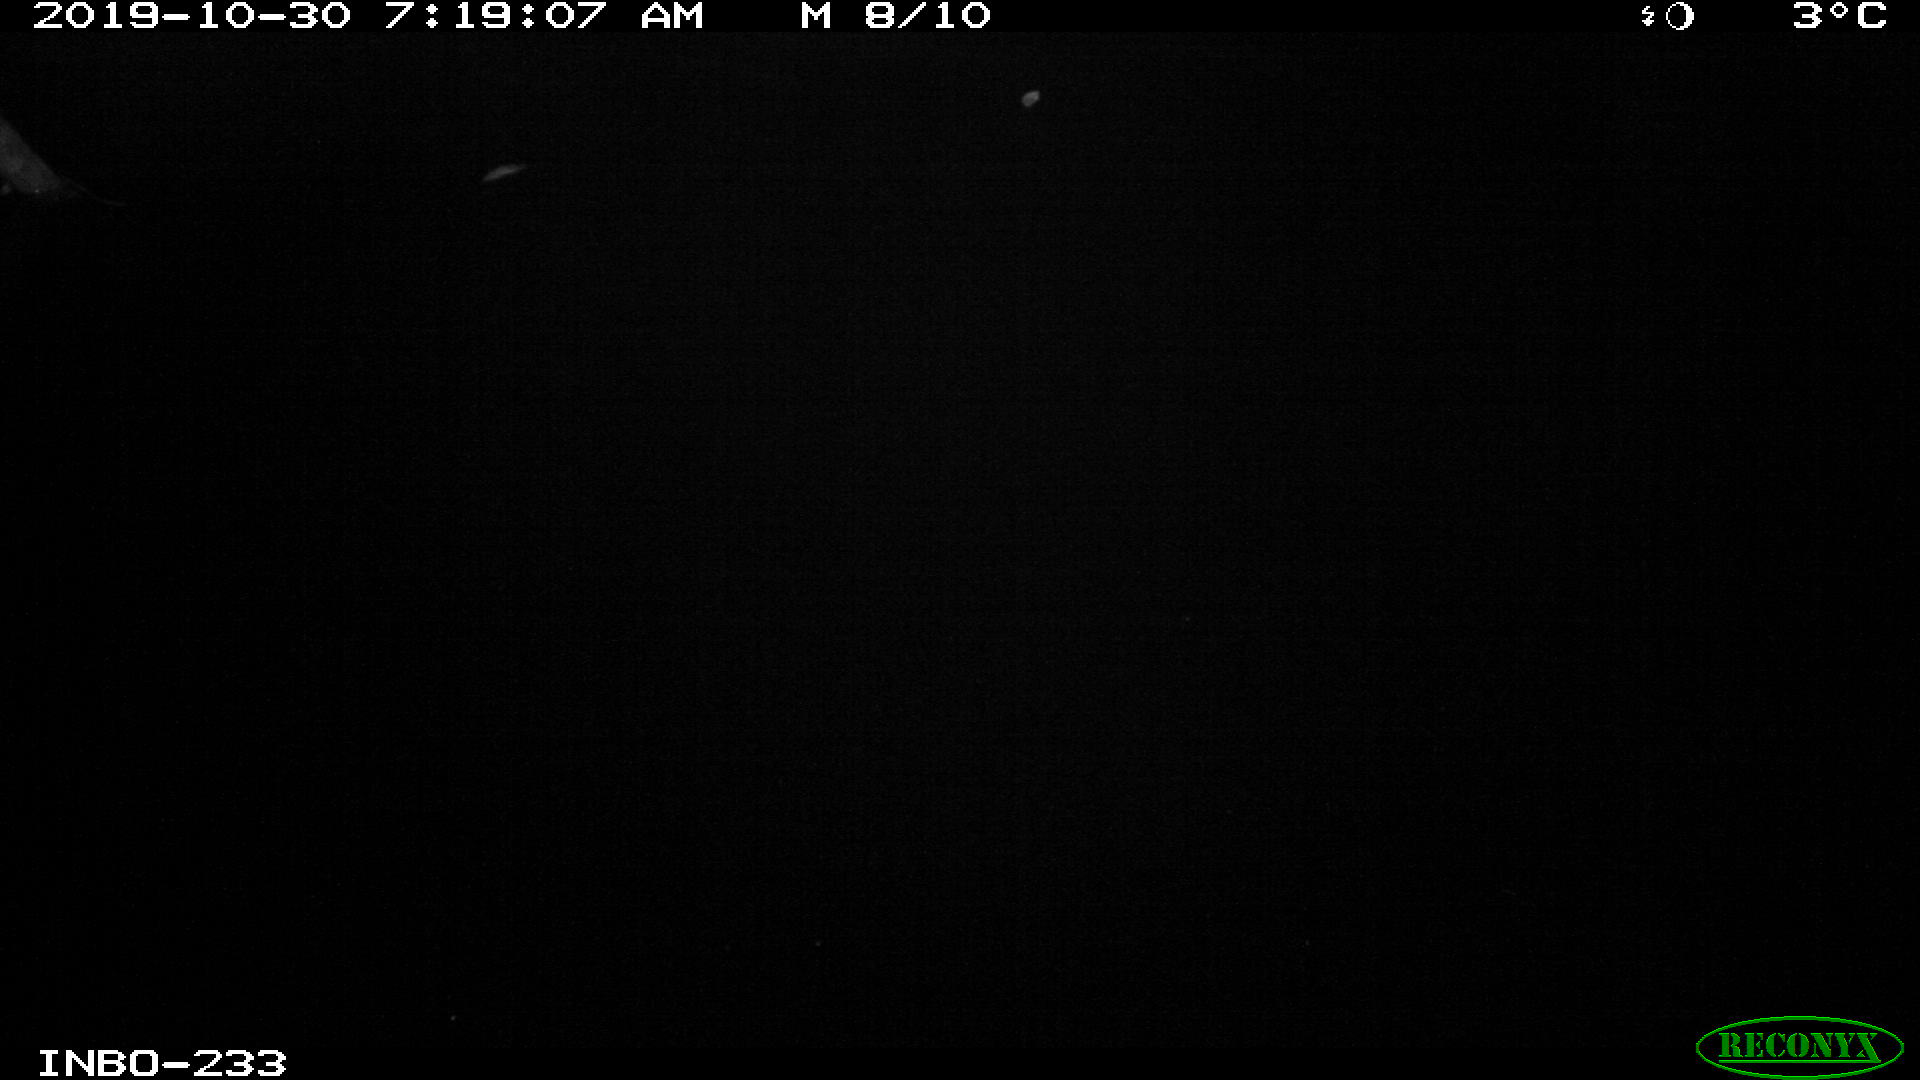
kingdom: Animalia
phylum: Chordata
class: Aves
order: Anseriformes
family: Anatidae
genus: Anas
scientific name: Anas platyrhynchos
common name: Mallard
